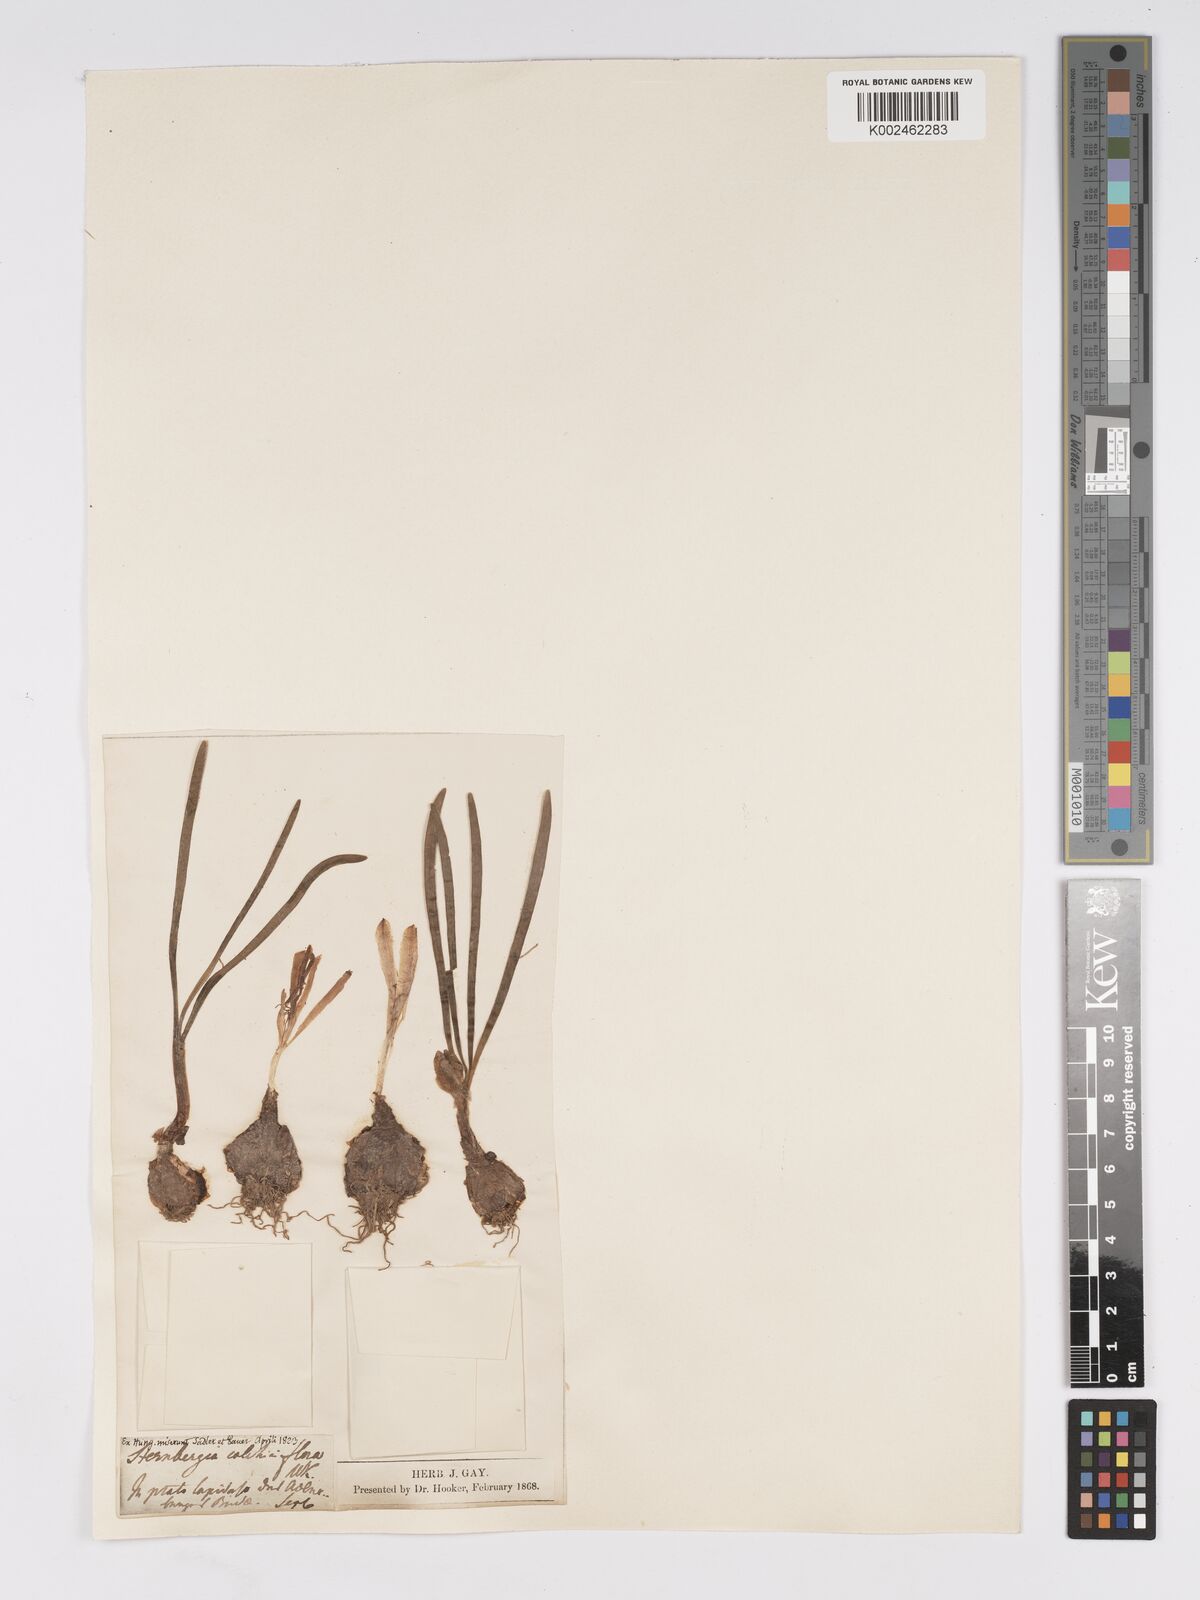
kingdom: Plantae
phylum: Tracheophyta
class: Liliopsida
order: Asparagales
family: Amaryllidaceae
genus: Sternbergia
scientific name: Sternbergia colchiciflora
